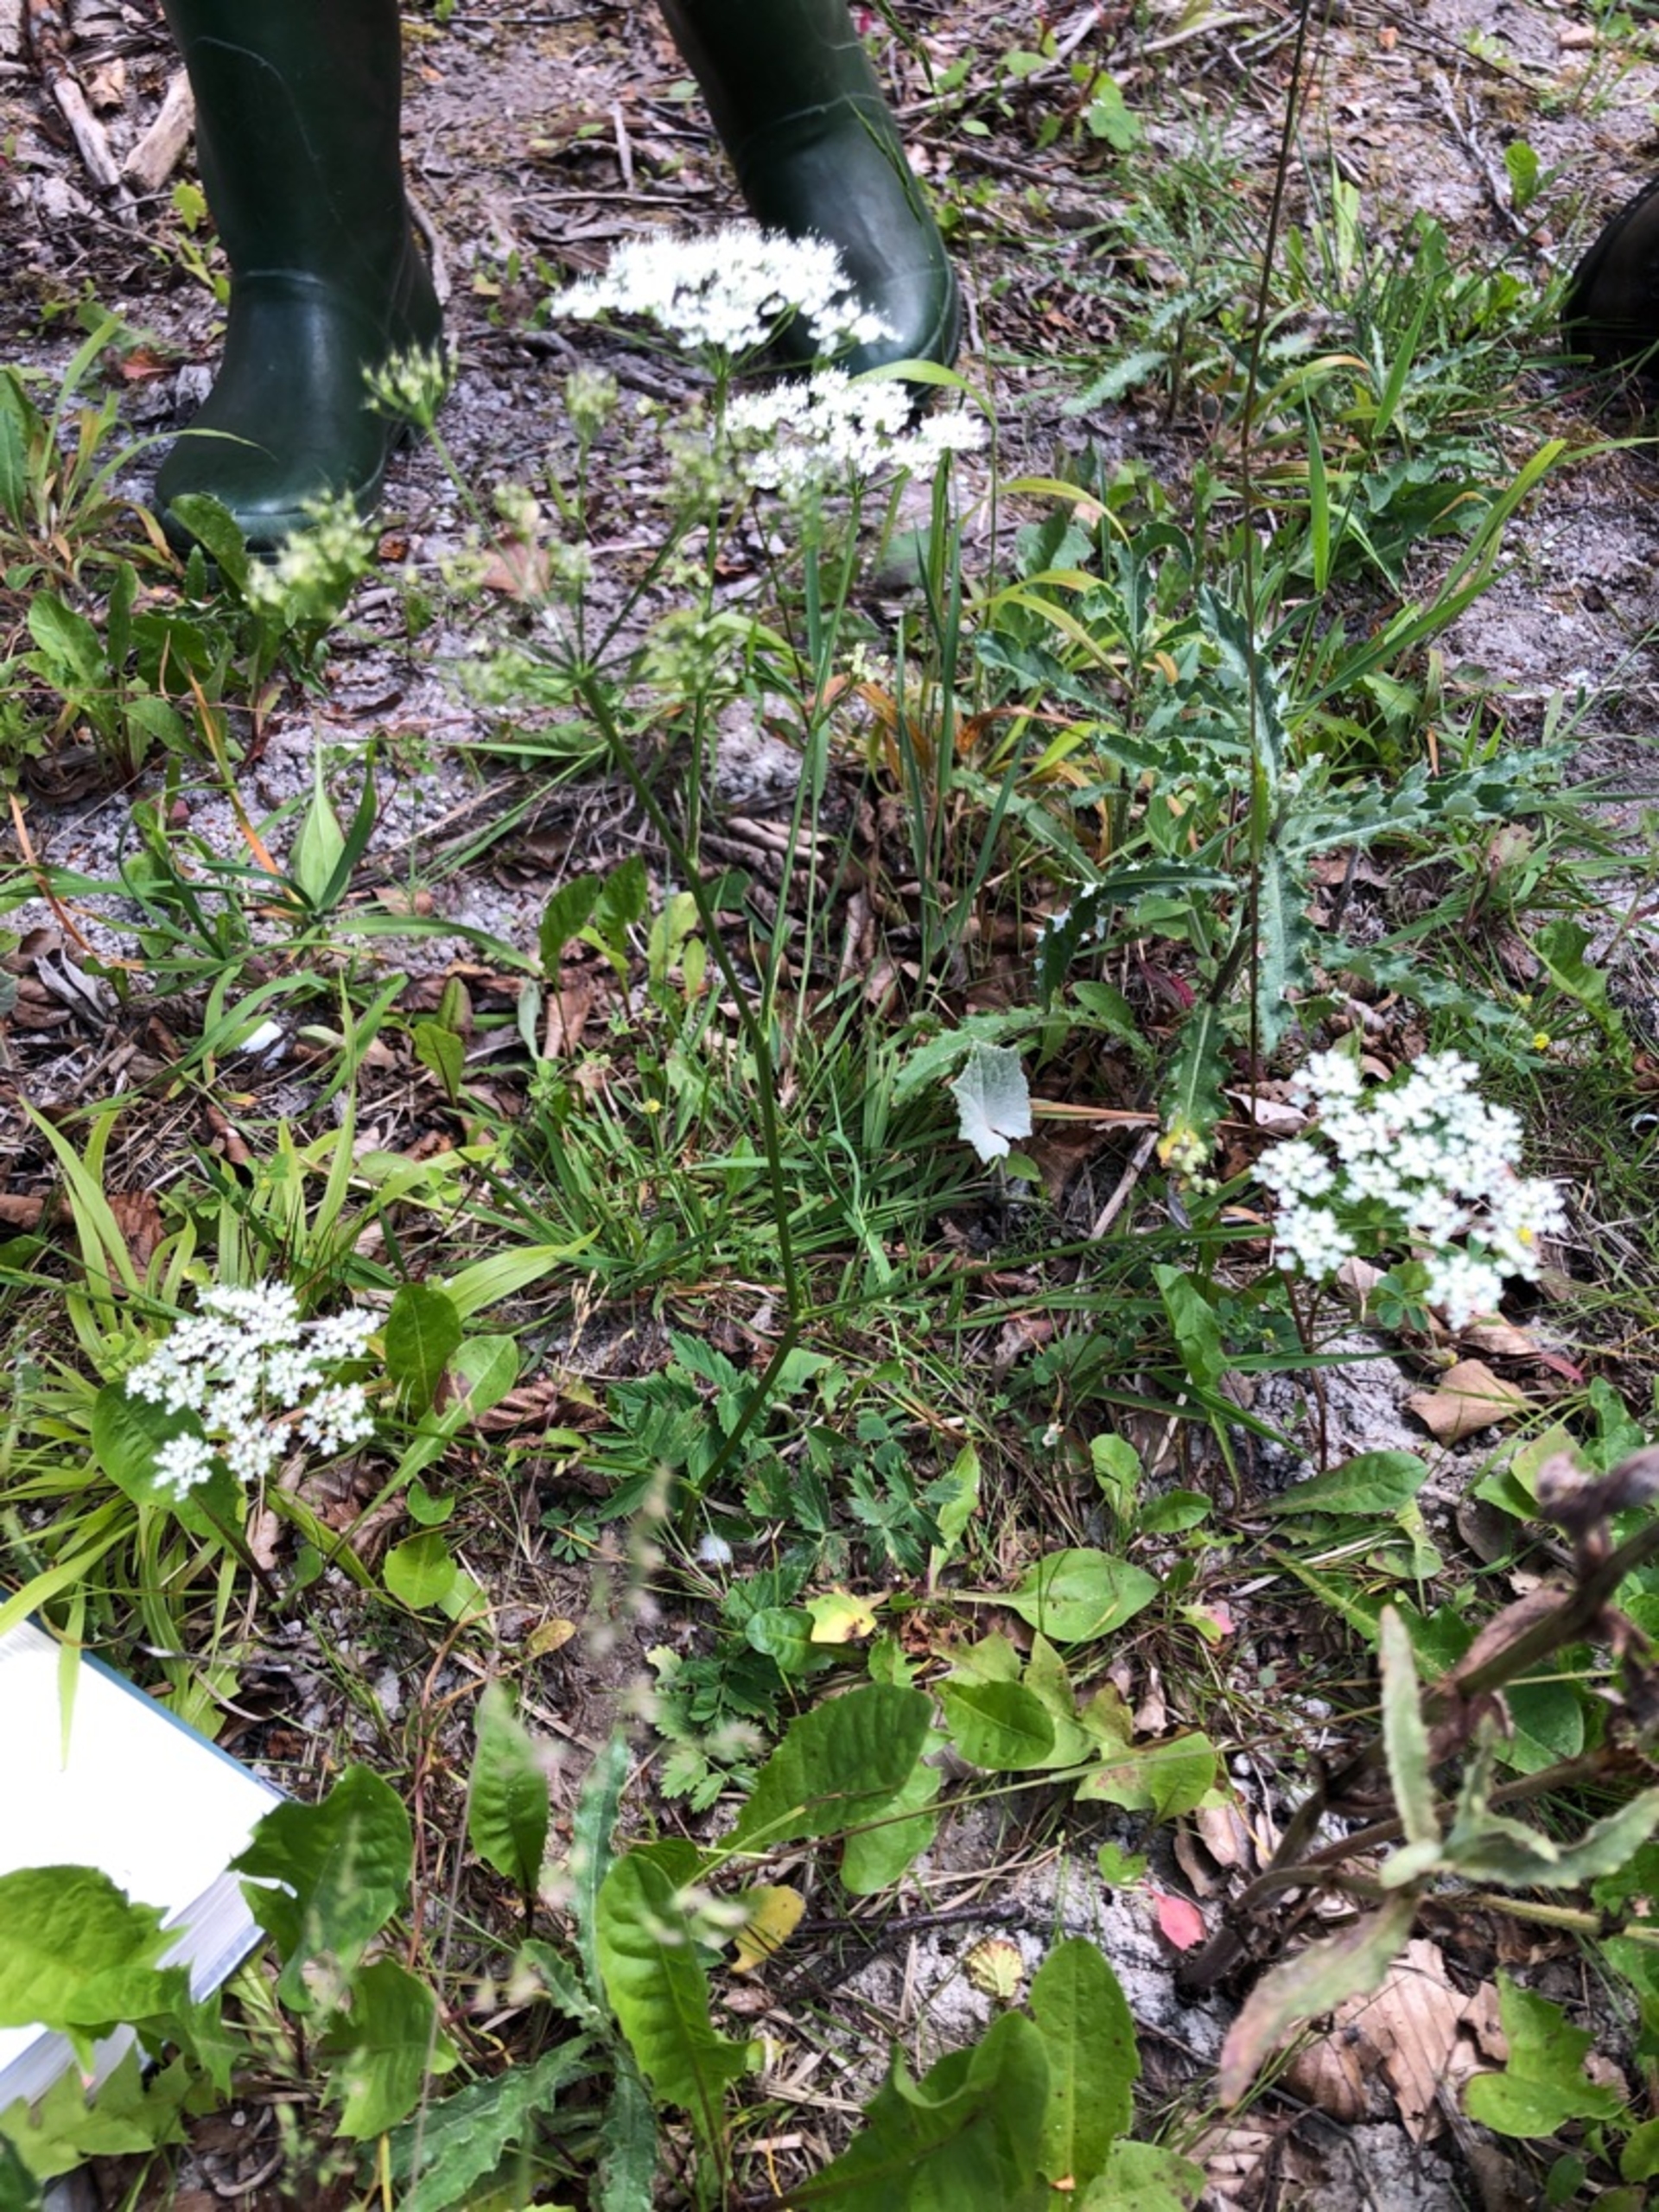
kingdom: Plantae
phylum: Tracheophyta
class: Magnoliopsida
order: Apiales
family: Apiaceae
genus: Pimpinella
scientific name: Pimpinella major
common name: Stor pimpinelle
